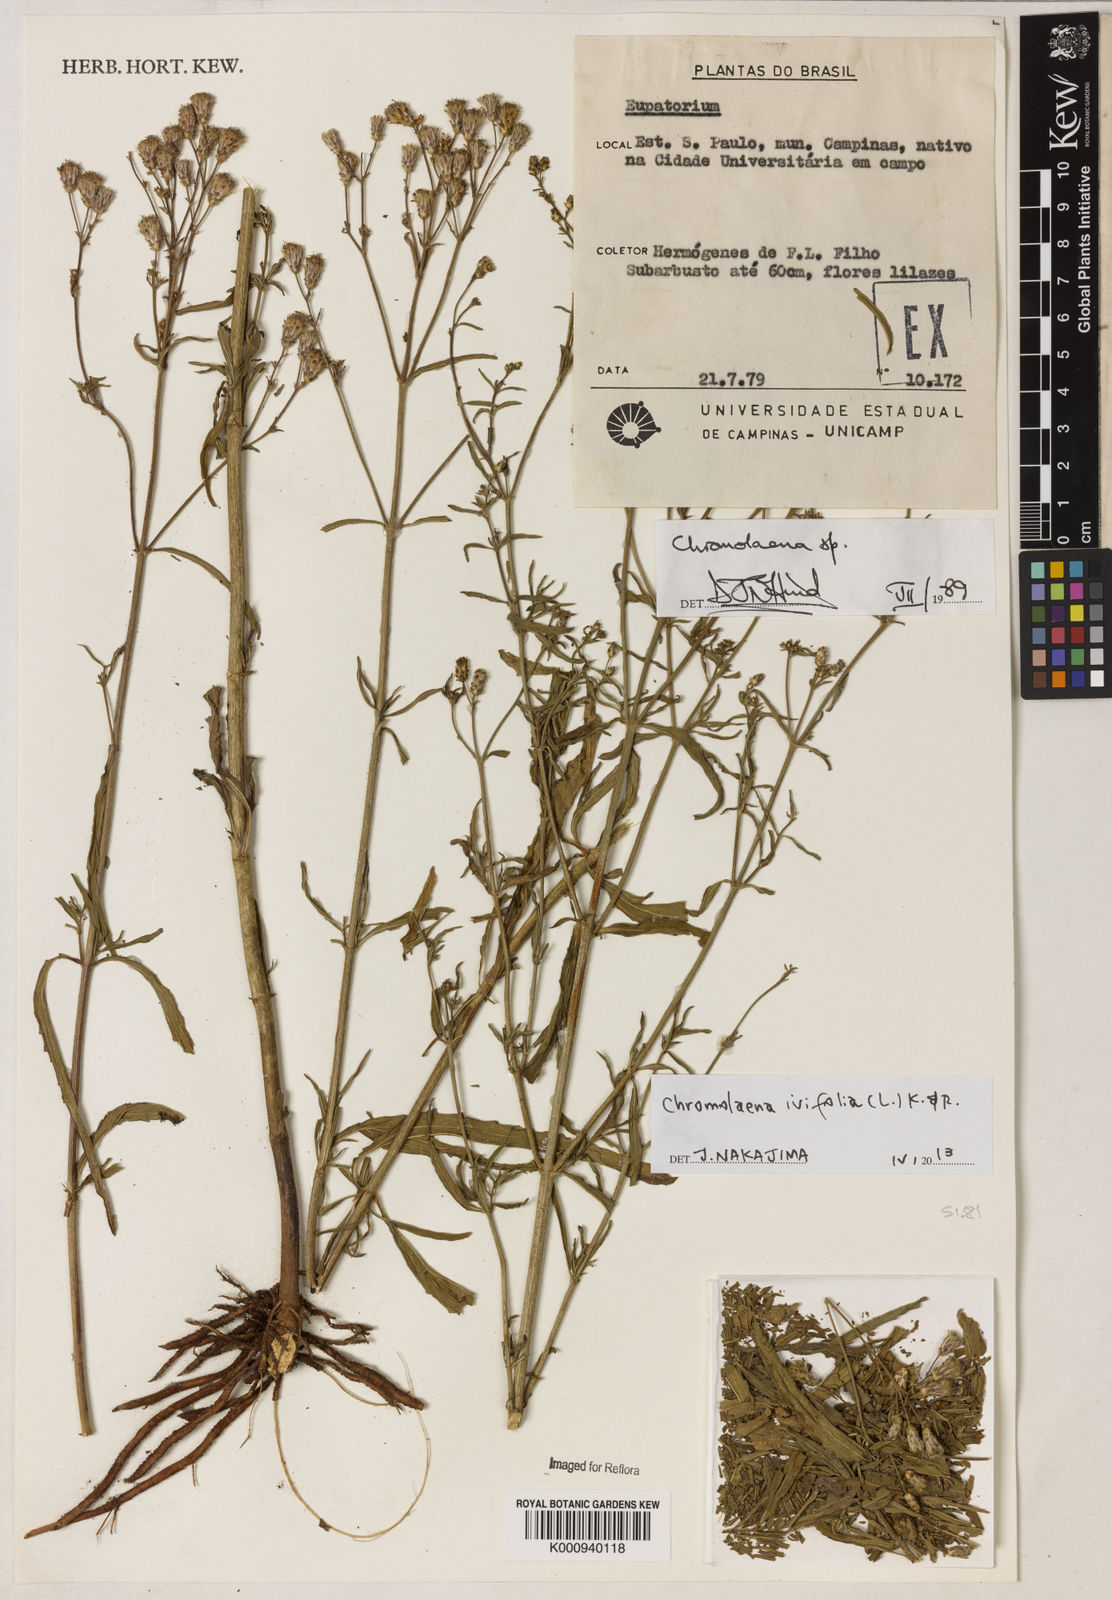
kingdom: Plantae
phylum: Tracheophyta
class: Magnoliopsida
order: Asterales
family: Asteraceae
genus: Chromolaena
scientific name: Chromolaena ivifolia
